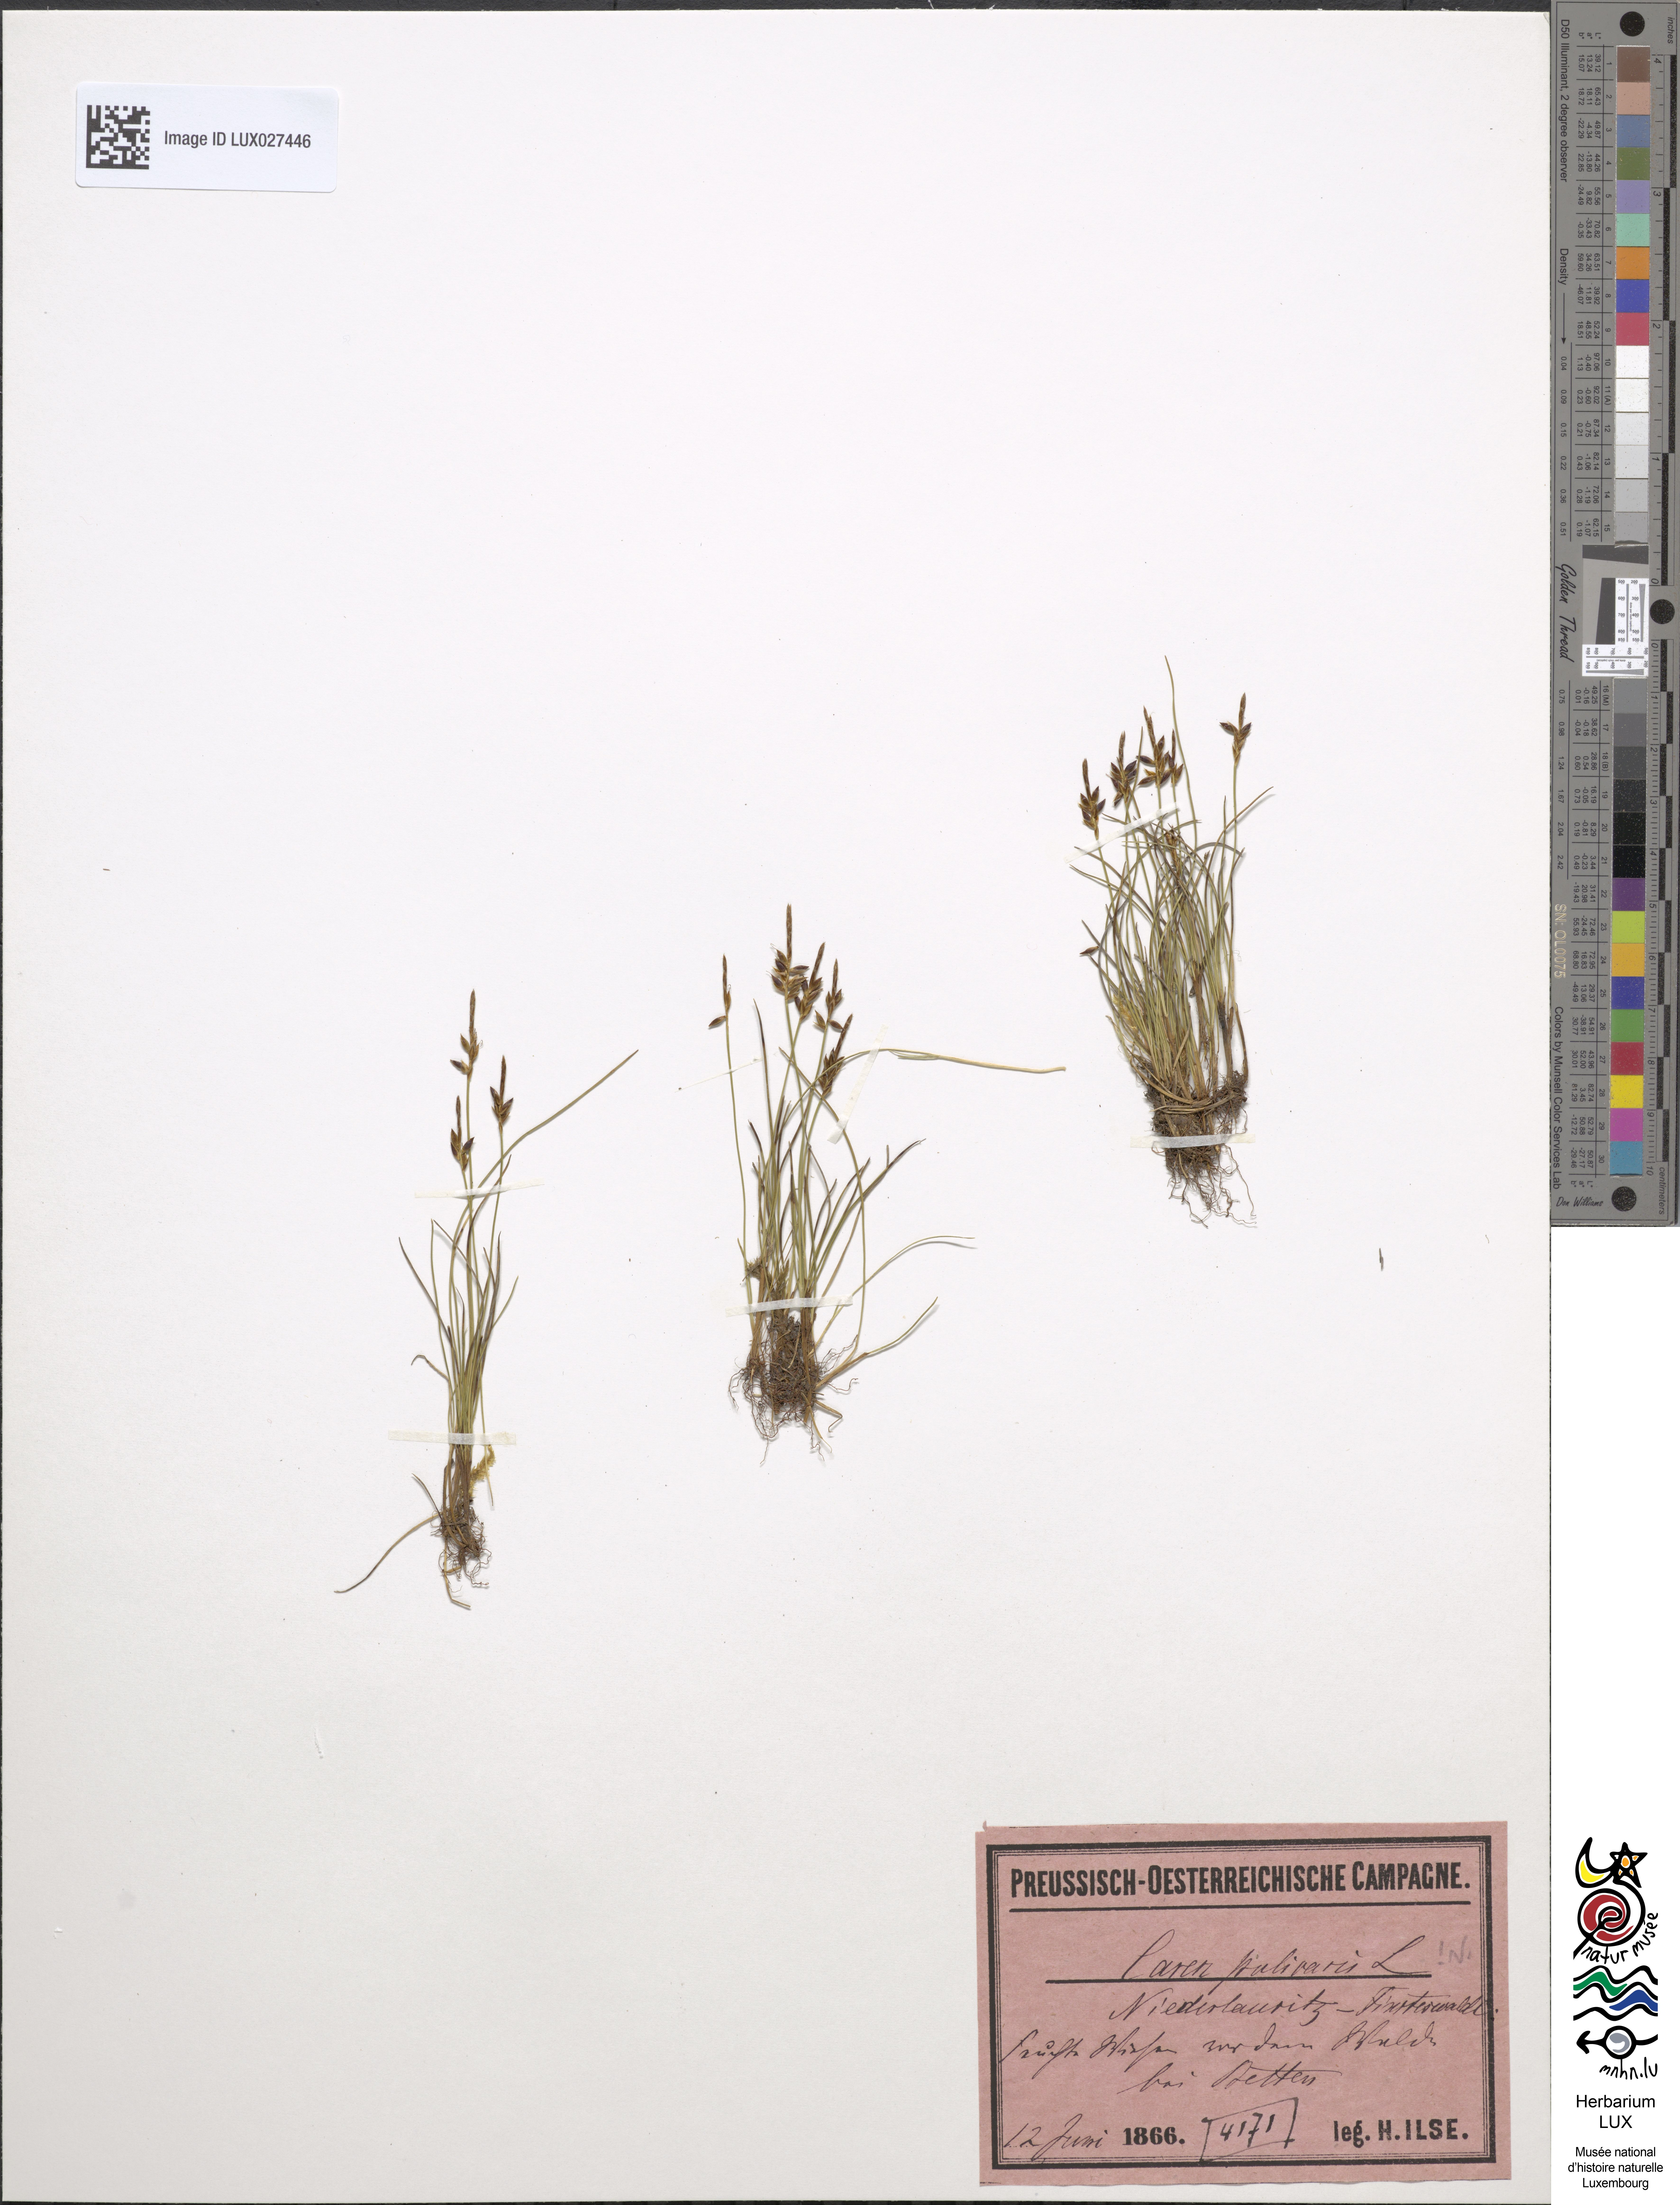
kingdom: Plantae
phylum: Tracheophyta
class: Liliopsida
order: Poales
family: Cyperaceae
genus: Carex
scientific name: Carex pulicaris
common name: Flea sedge
